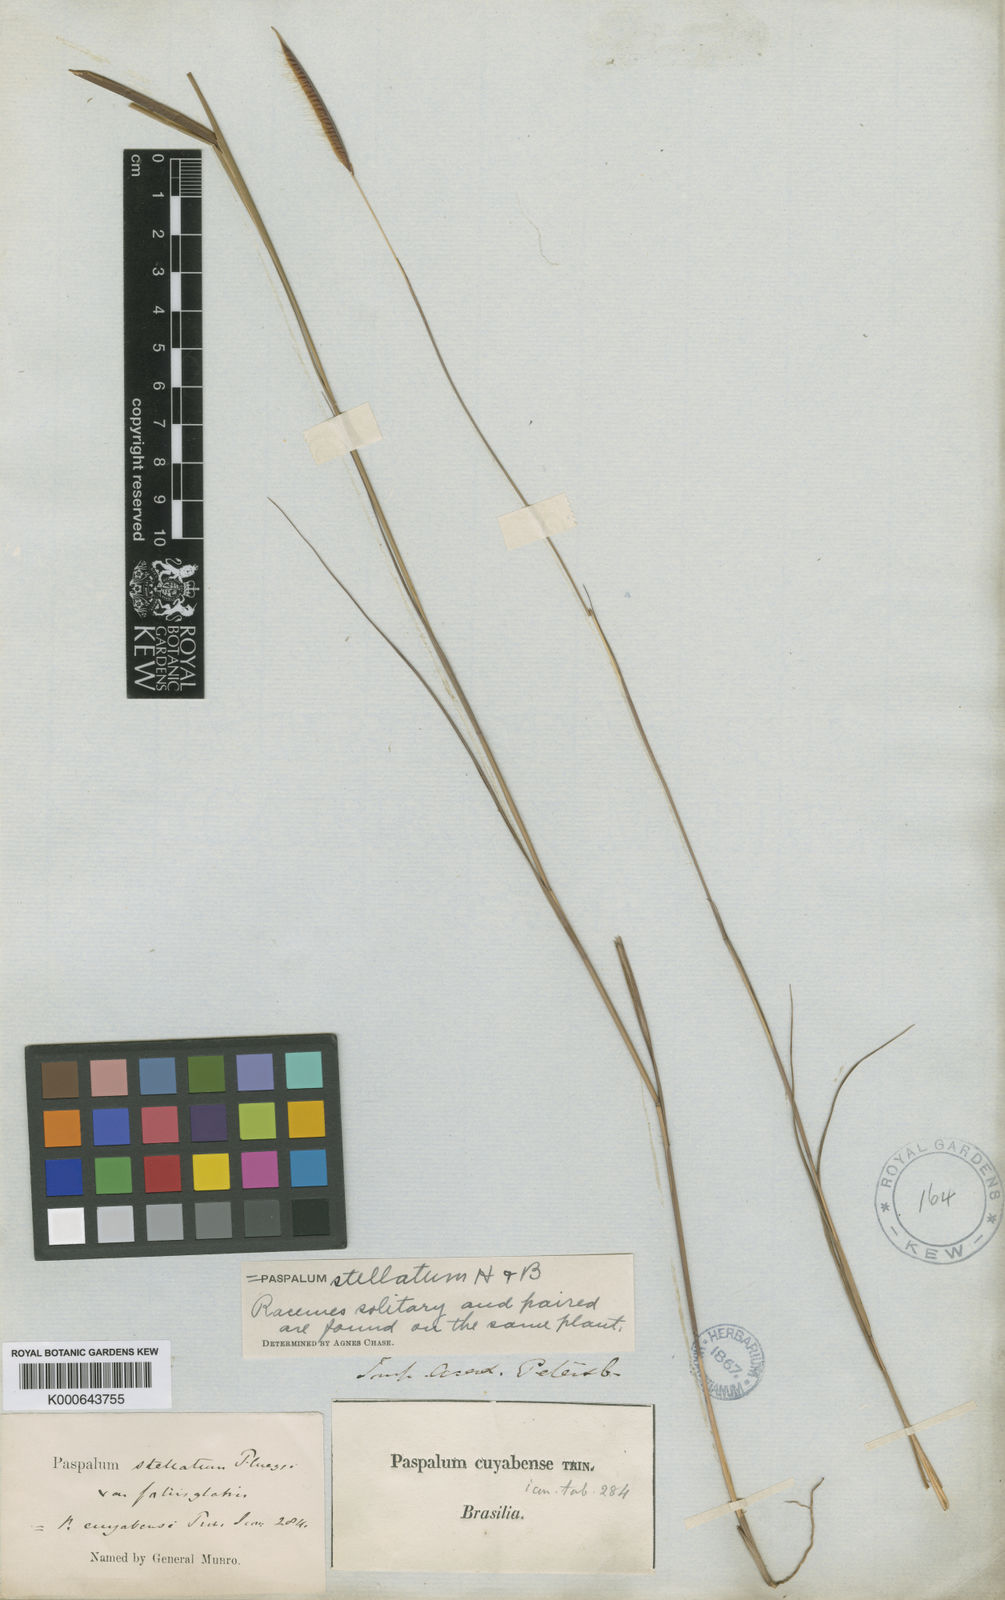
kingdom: Plantae
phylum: Tracheophyta
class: Liliopsida
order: Poales
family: Poaceae
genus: Paspalum
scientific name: Paspalum
